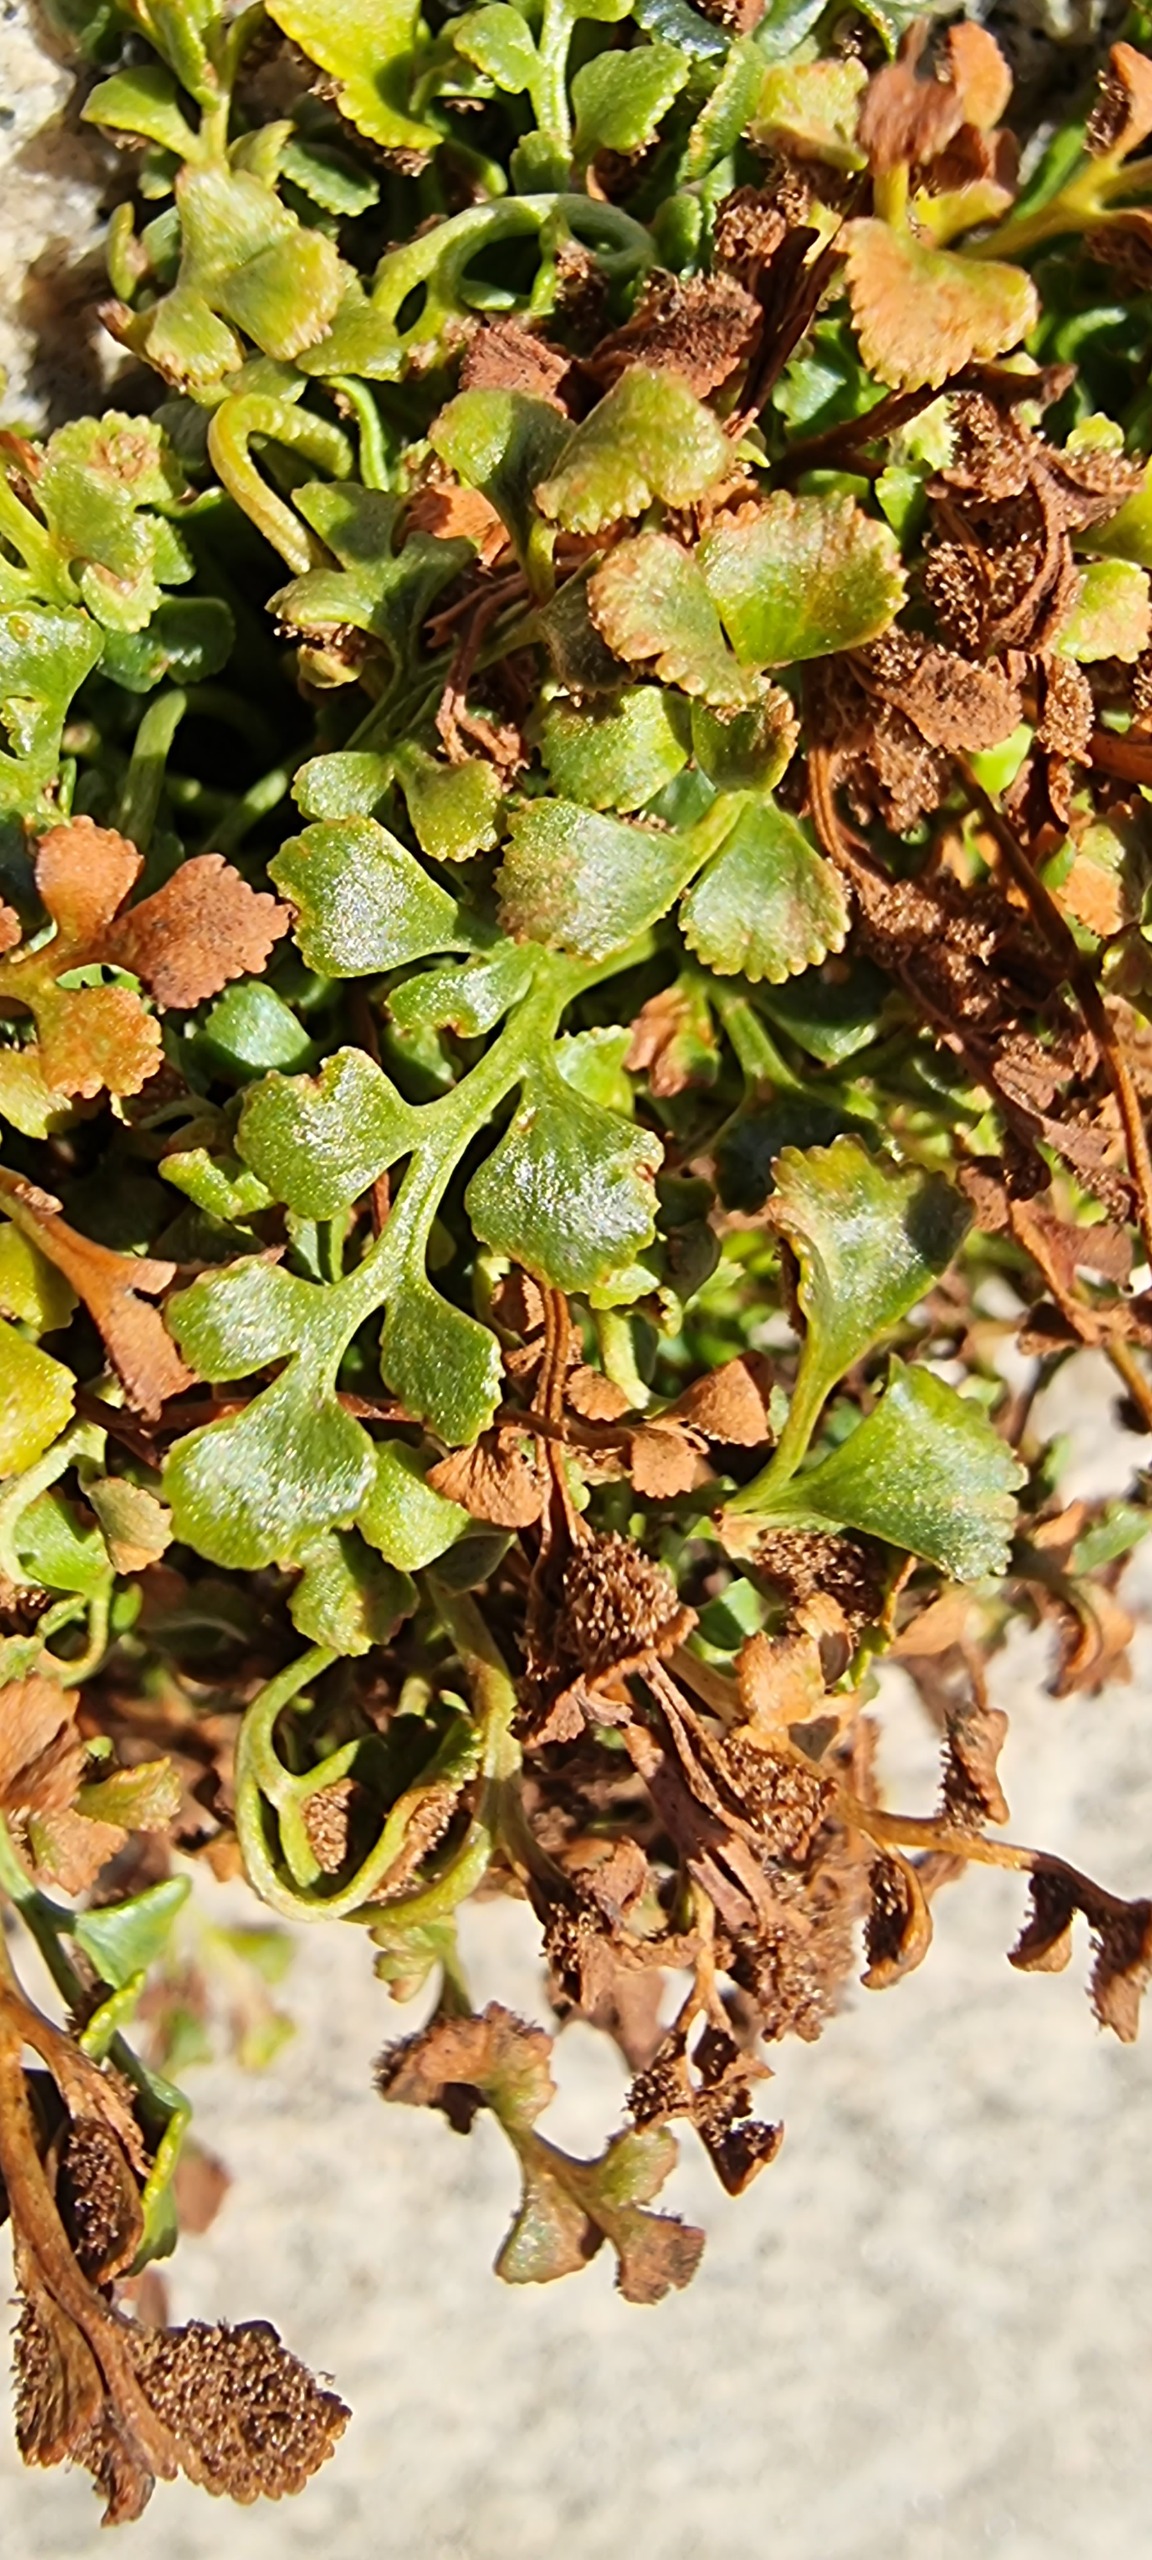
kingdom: Plantae
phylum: Tracheophyta
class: Polypodiopsida
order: Polypodiales
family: Aspleniaceae
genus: Asplenium
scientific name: Asplenium ruta-muraria
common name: Murrude
